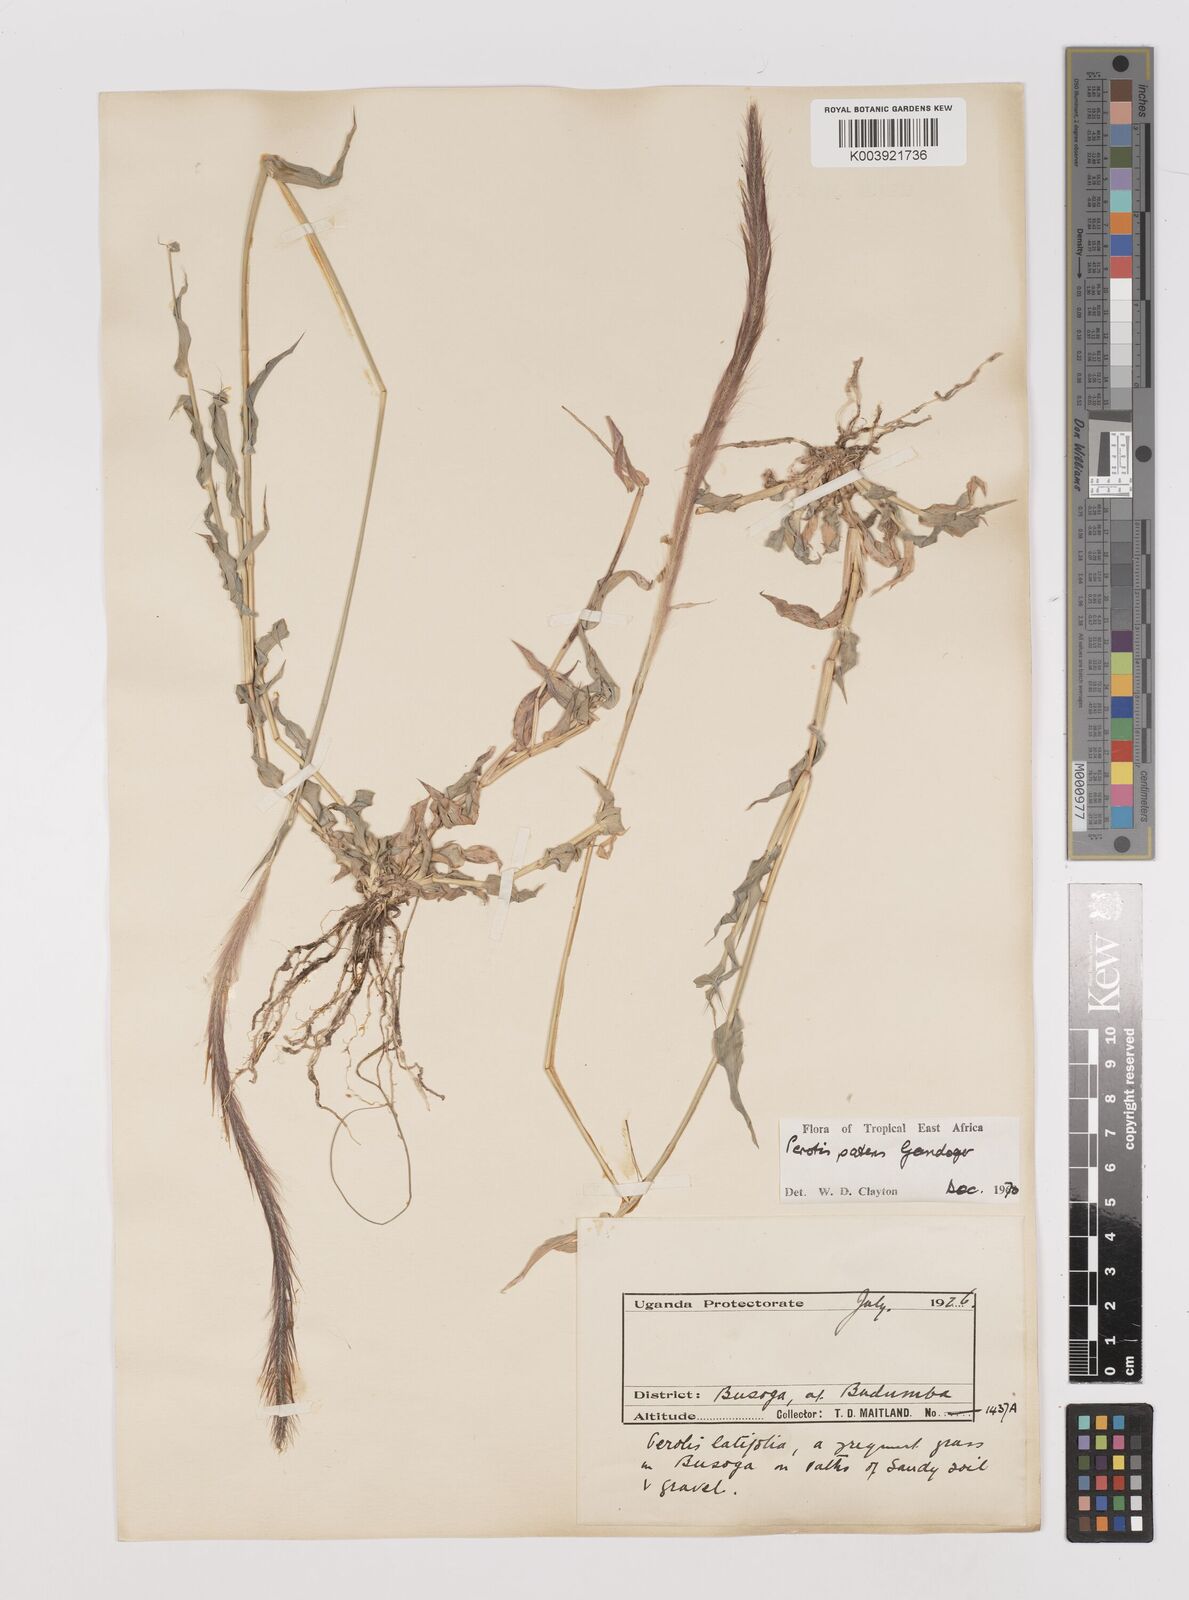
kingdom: Plantae
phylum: Tracheophyta
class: Liliopsida
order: Poales
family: Poaceae
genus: Perotis
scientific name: Perotis patens
